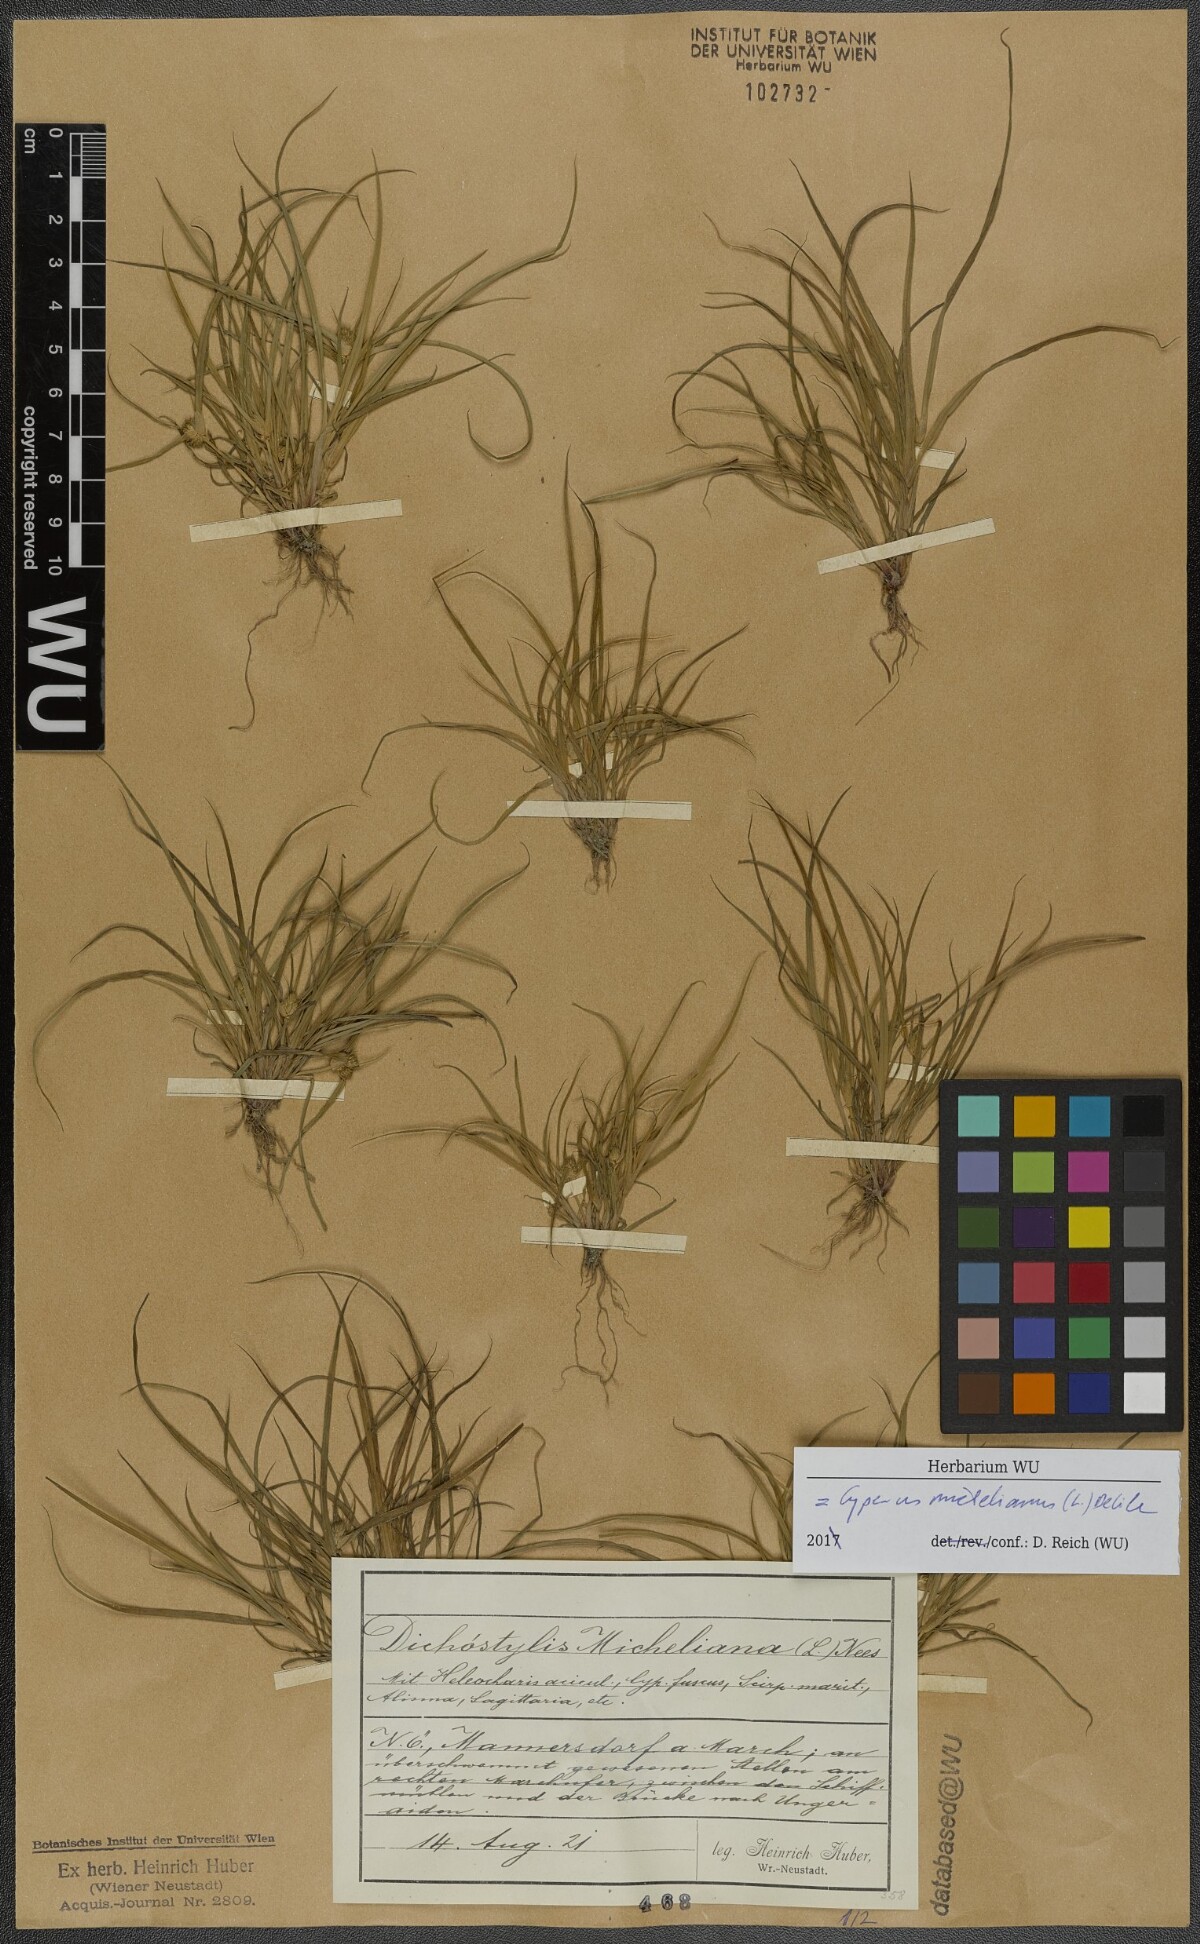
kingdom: Plantae
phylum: Tracheophyta
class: Liliopsida
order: Poales
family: Cyperaceae
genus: Cyperus
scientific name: Cyperus michelianus
